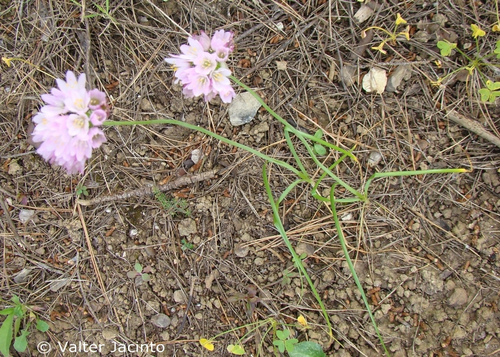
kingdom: Plantae
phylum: Tracheophyta
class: Liliopsida
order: Asparagales
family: Amaryllidaceae
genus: Allium
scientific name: Allium roseum
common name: Rosy garlic
